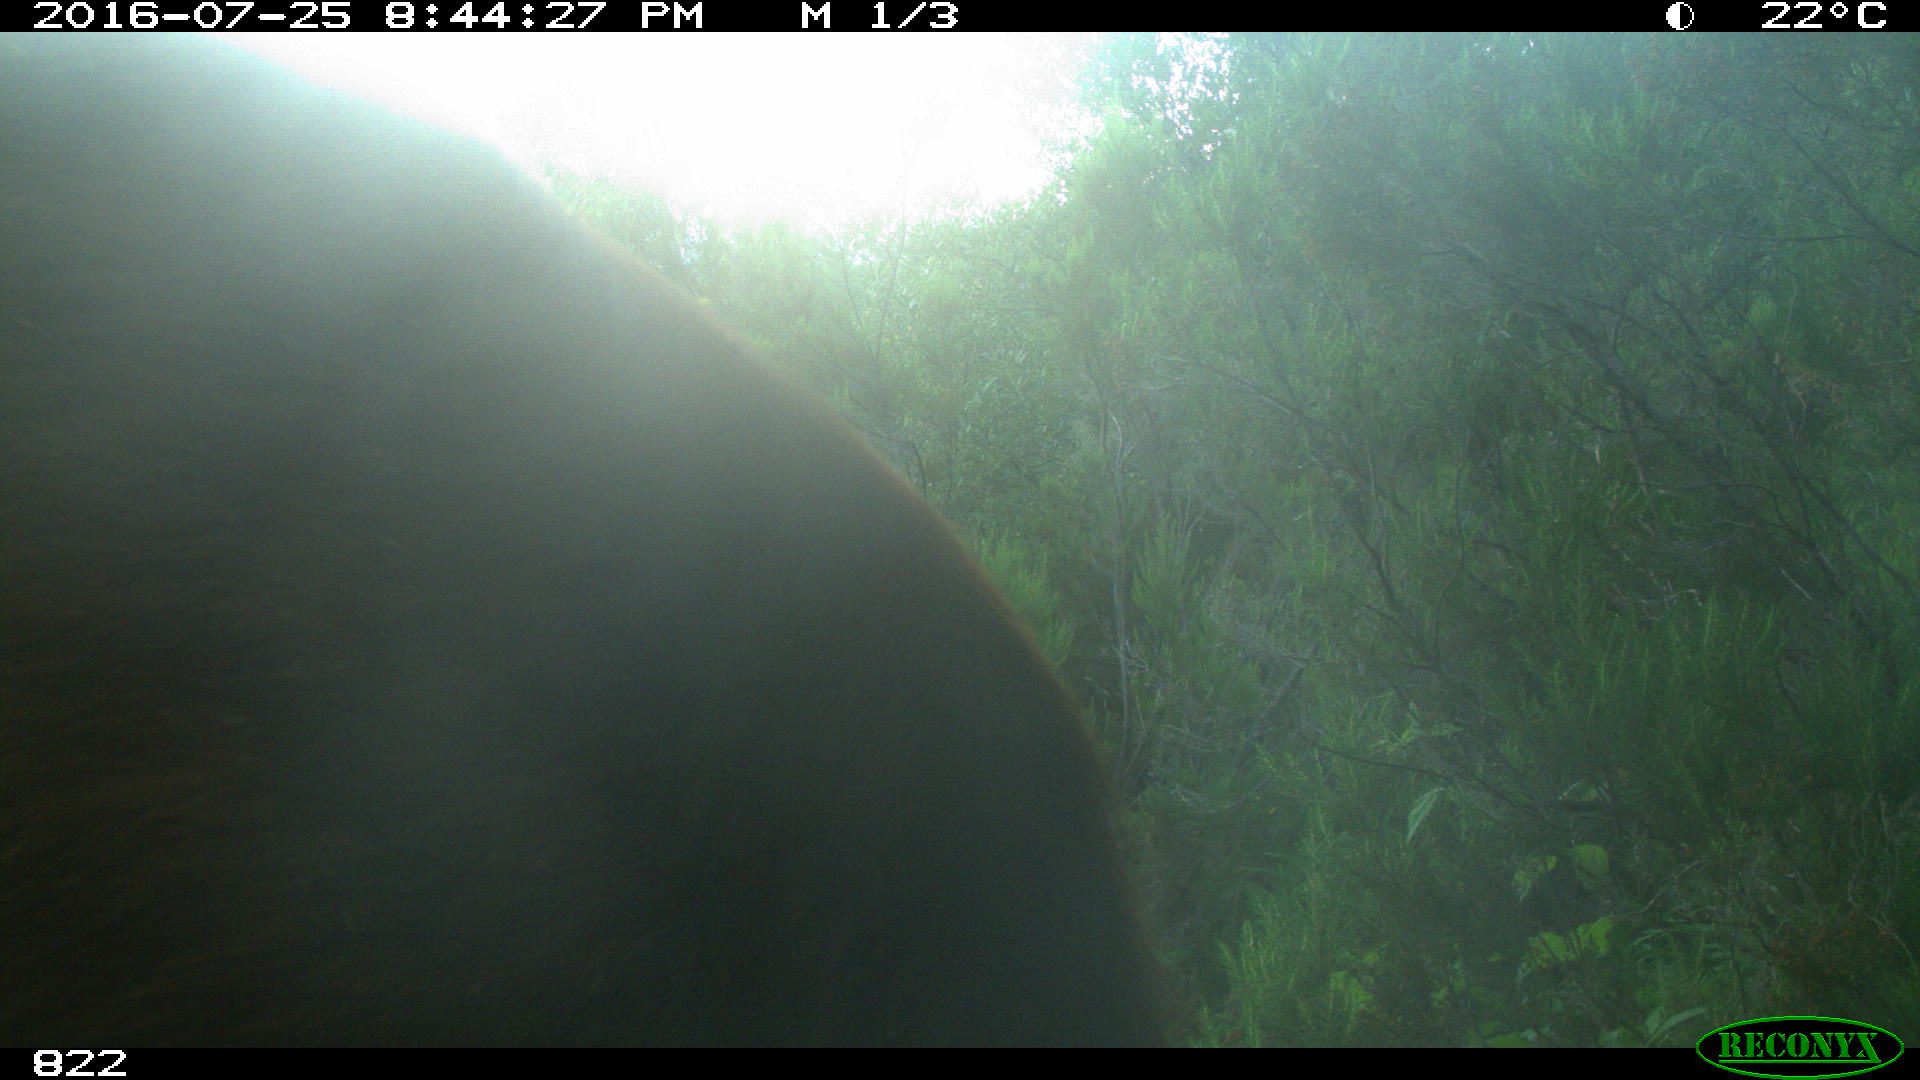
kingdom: Animalia
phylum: Chordata
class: Mammalia
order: Artiodactyla
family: Bovidae
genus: Bos
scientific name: Bos taurus
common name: Domesticated cattle
